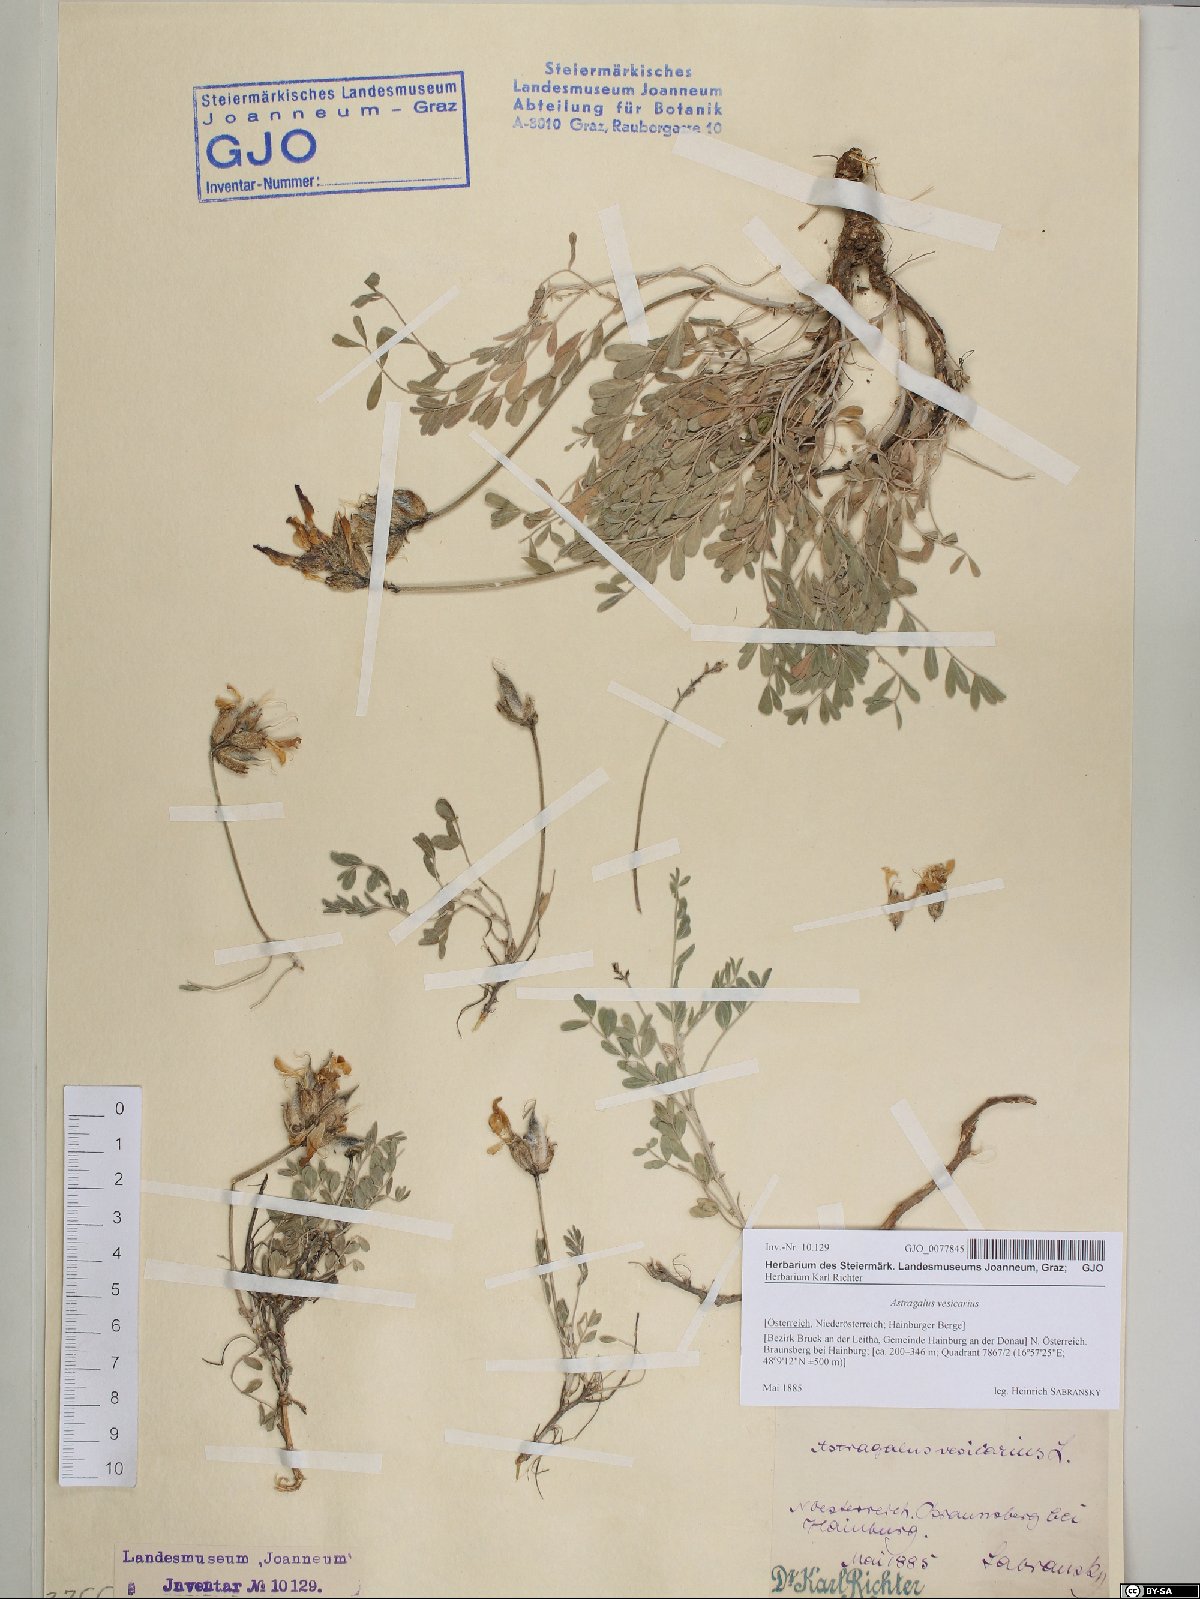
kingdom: Plantae
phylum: Tracheophyta
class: Magnoliopsida
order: Fabales
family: Fabaceae
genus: Astragalus
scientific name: Astragalus vesicarius
